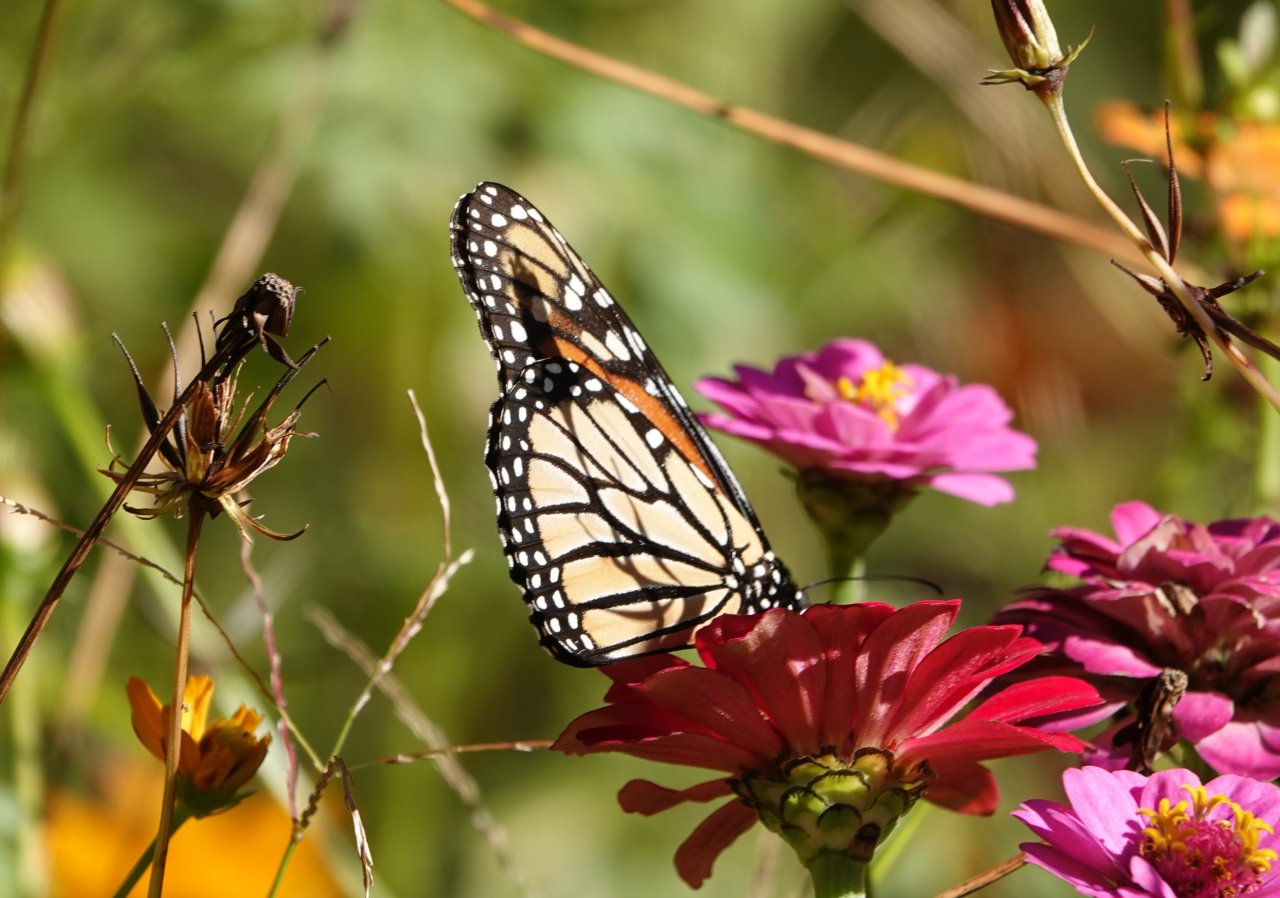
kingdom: Animalia
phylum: Arthropoda
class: Insecta
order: Lepidoptera
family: Nymphalidae
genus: Danaus
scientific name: Danaus plexippus
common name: Monarch
